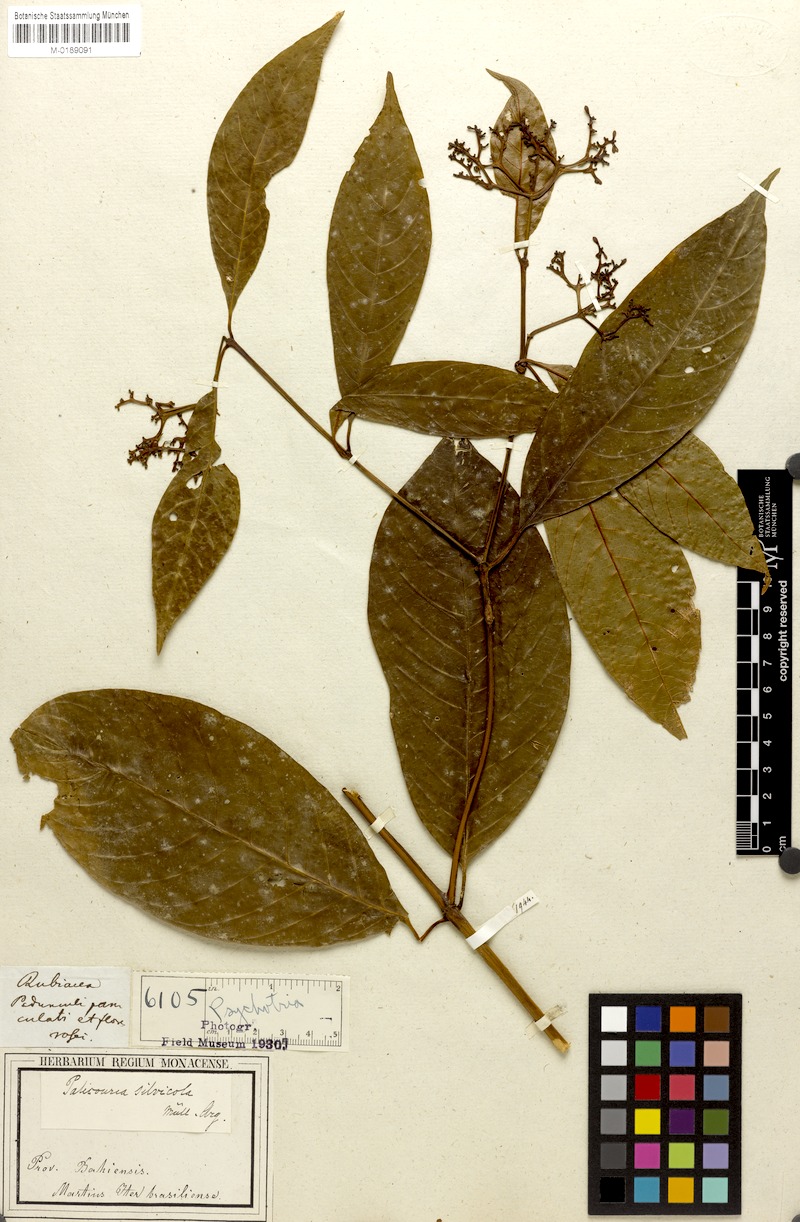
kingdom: Plantae
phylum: Tracheophyta
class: Magnoliopsida
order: Gentianales
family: Rubiaceae
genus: Psychotria
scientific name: Psychotria silvicola
